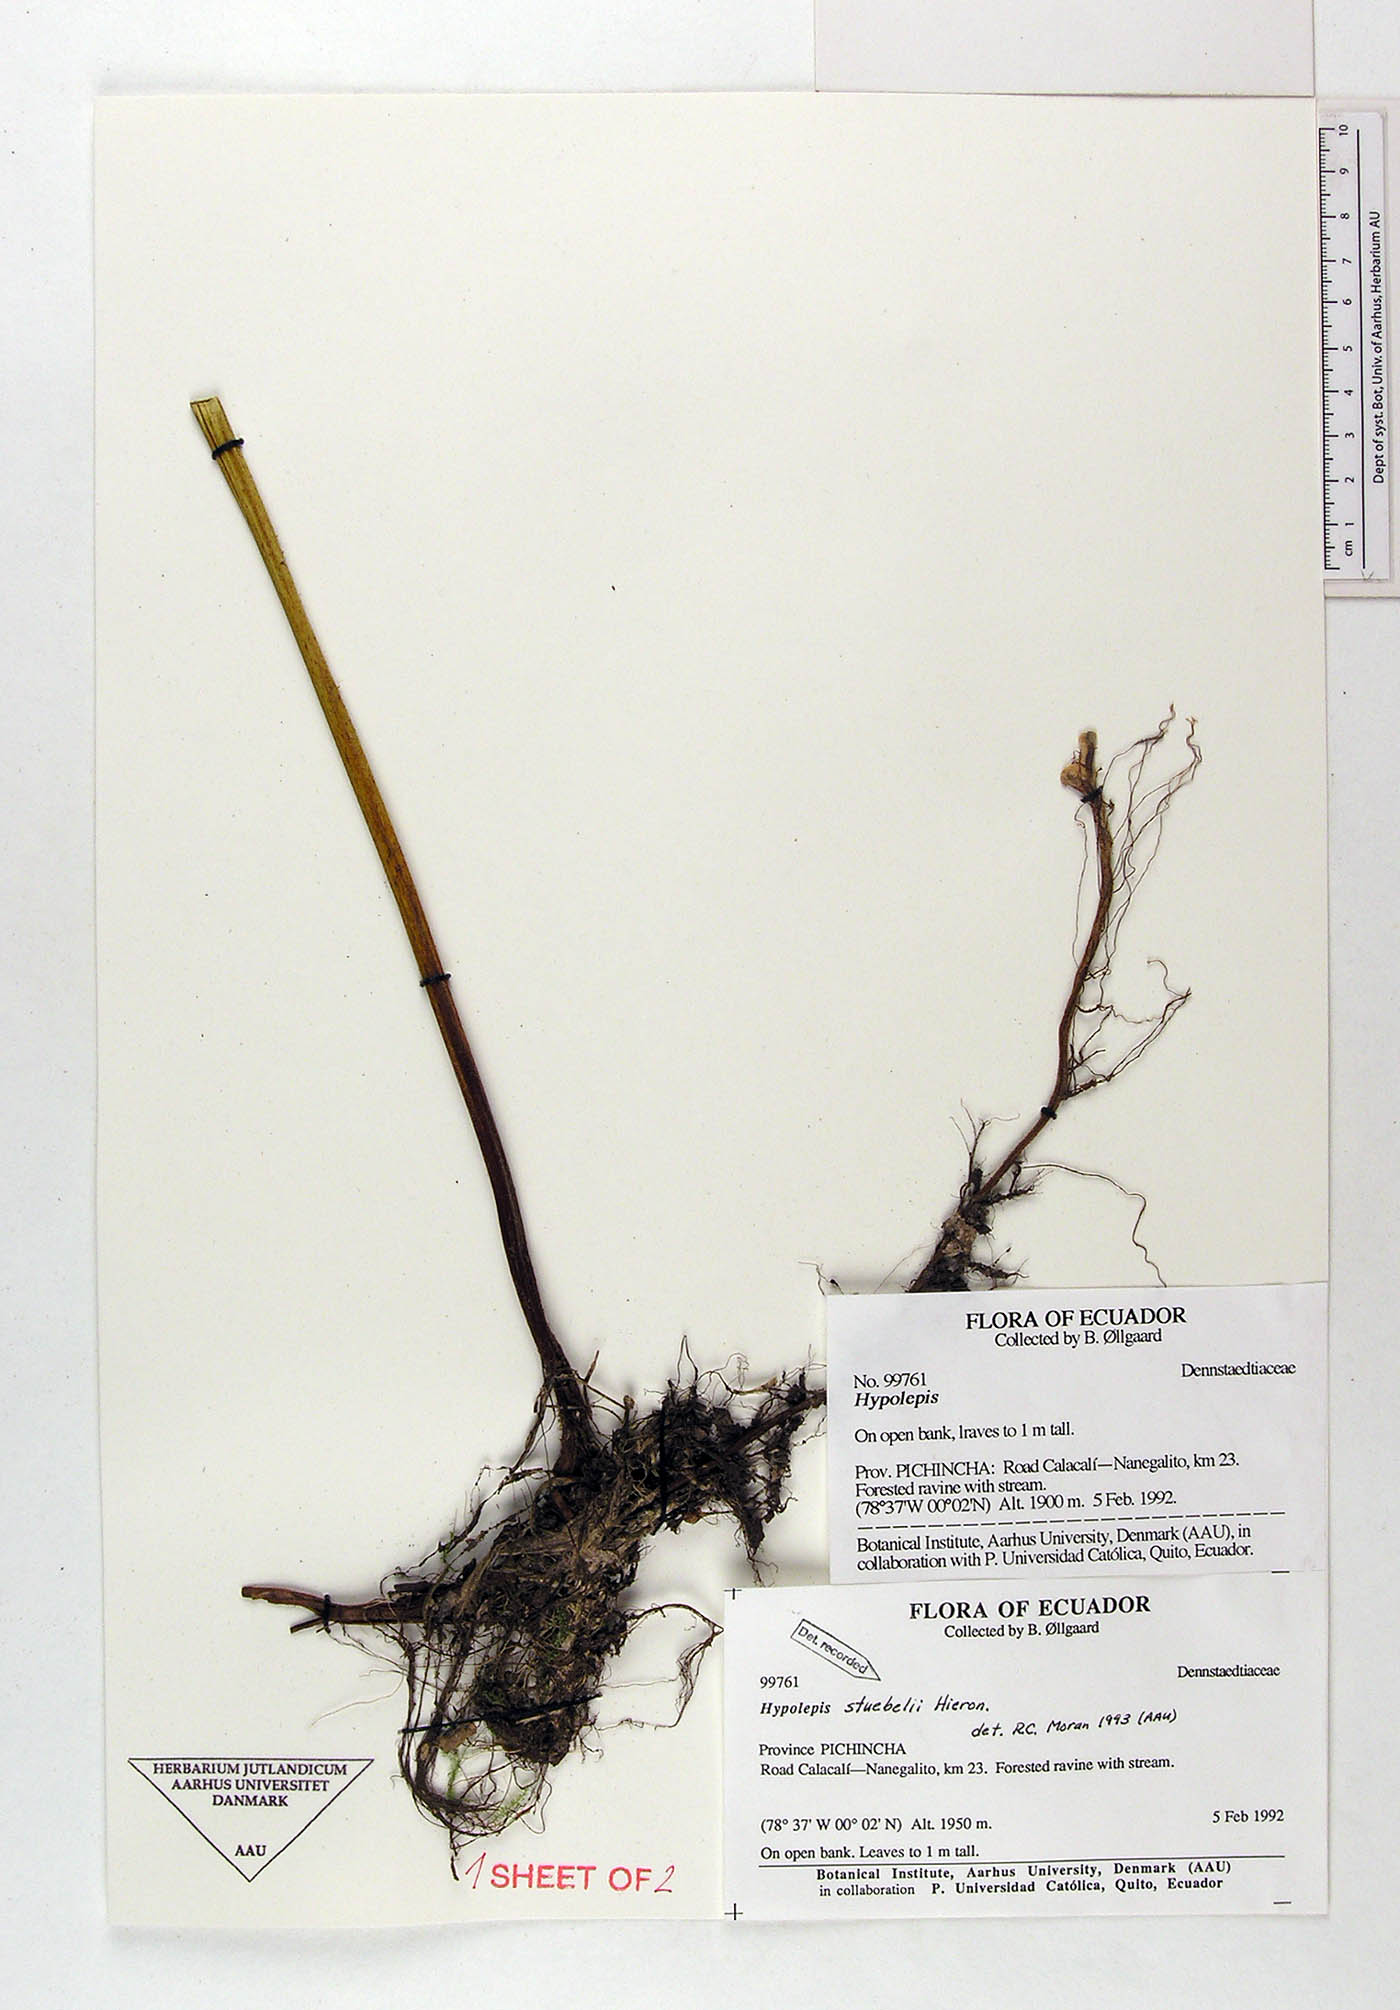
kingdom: Plantae
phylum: Tracheophyta
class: Polypodiopsida
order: Polypodiales
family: Dennstaedtiaceae
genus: Hypolepis
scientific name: Hypolepis stuebelii
